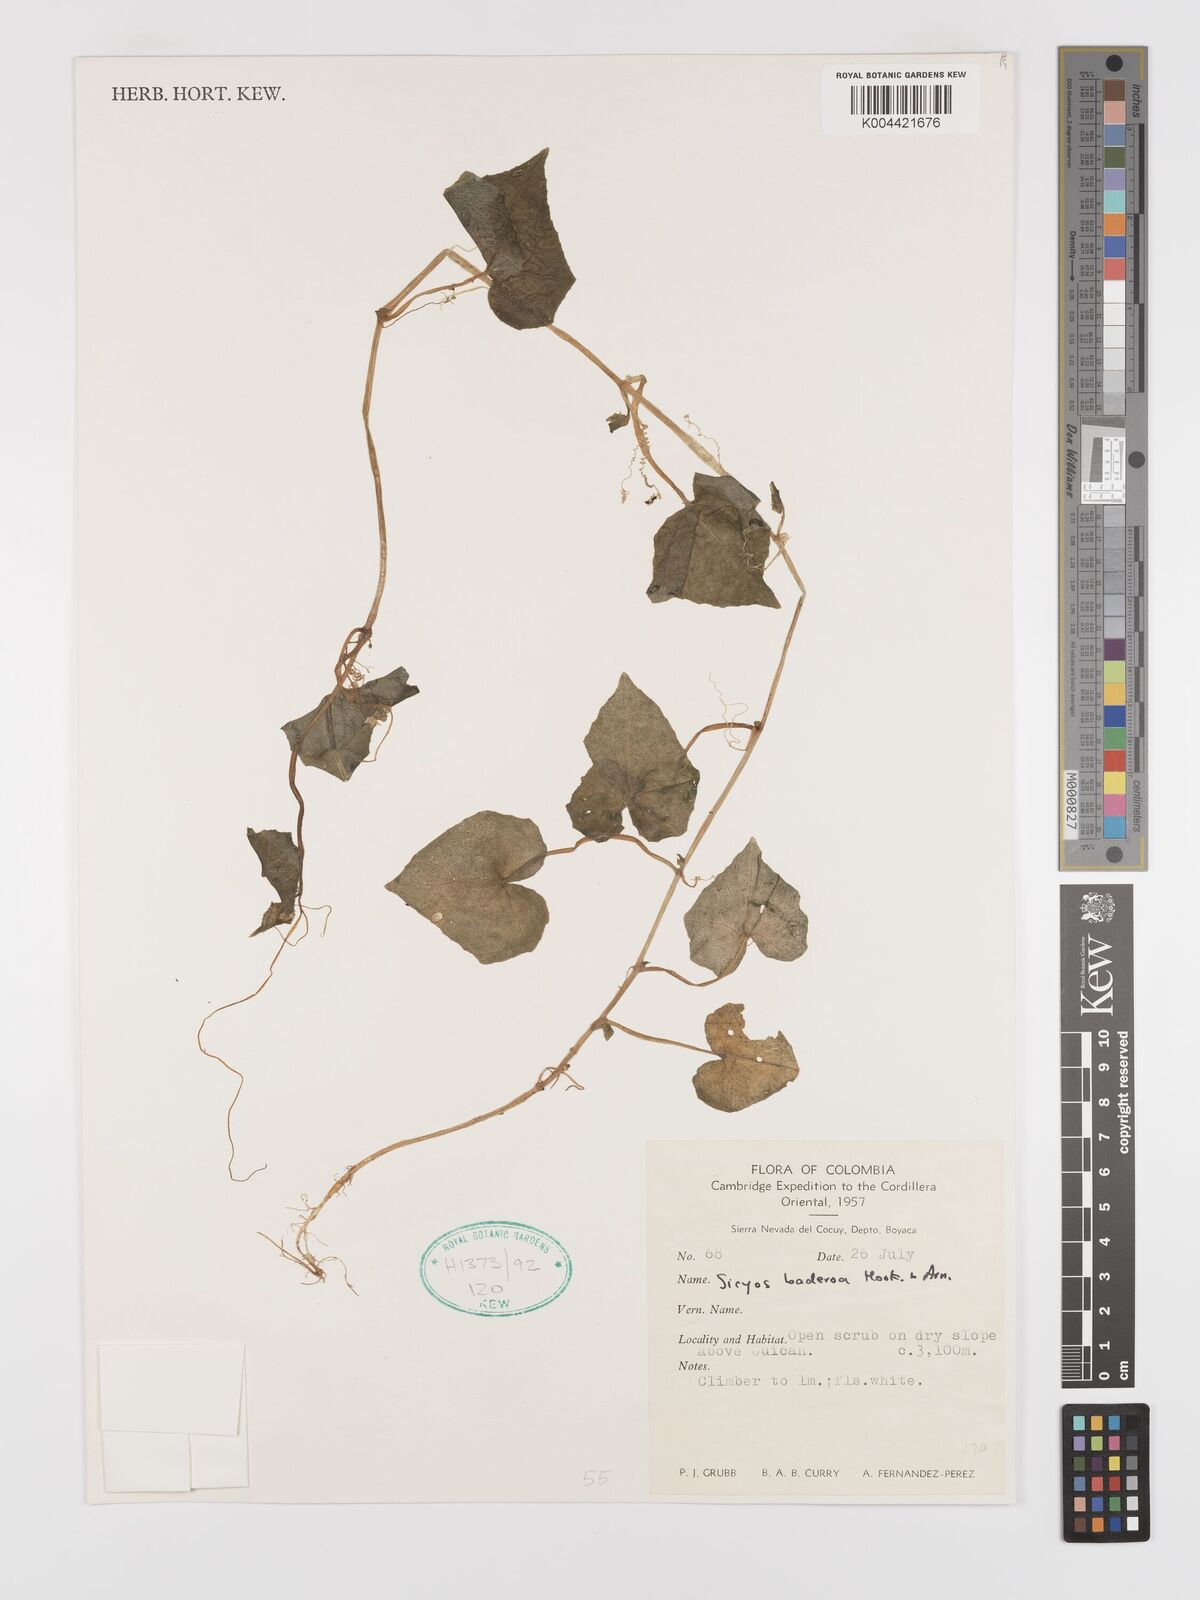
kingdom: Plantae
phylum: Tracheophyta
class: Magnoliopsida
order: Cucurbitales
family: Cucurbitaceae
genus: Sicyos
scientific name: Sicyos baderoa
